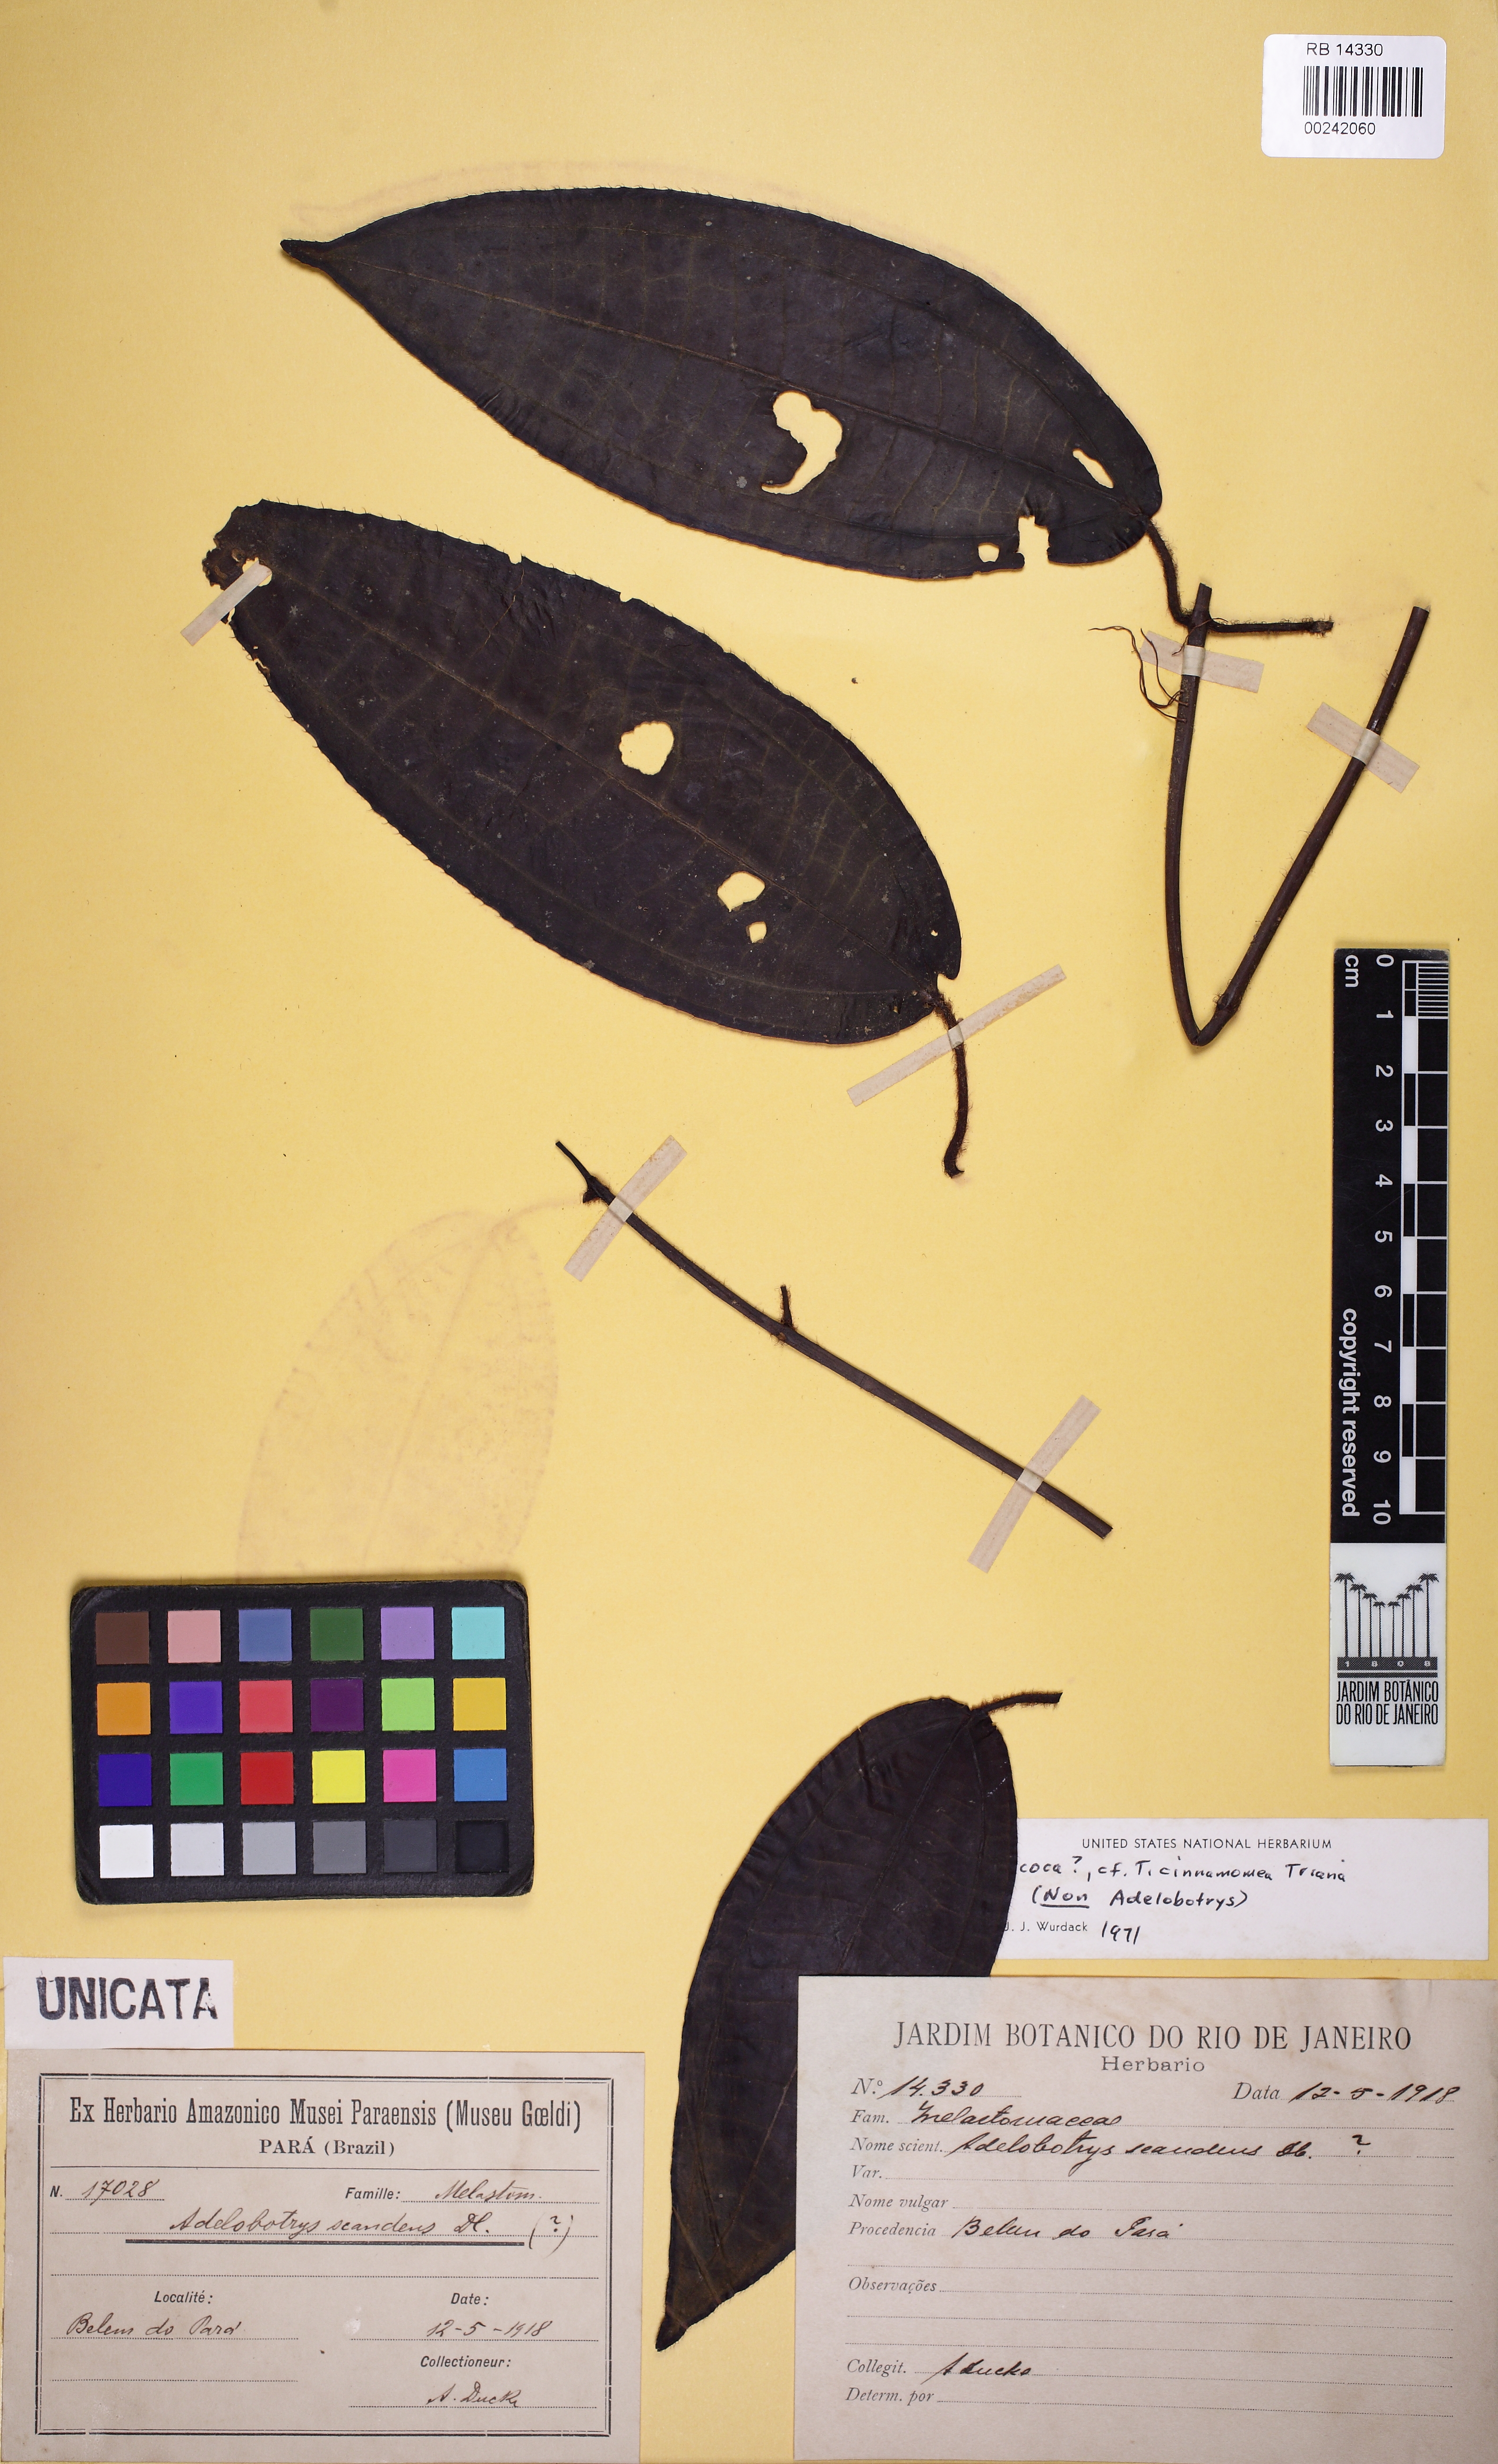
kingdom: Plantae
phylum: Tracheophyta
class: Magnoliopsida
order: Myrtales
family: Melastomataceae
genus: Miconia
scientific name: Miconia
